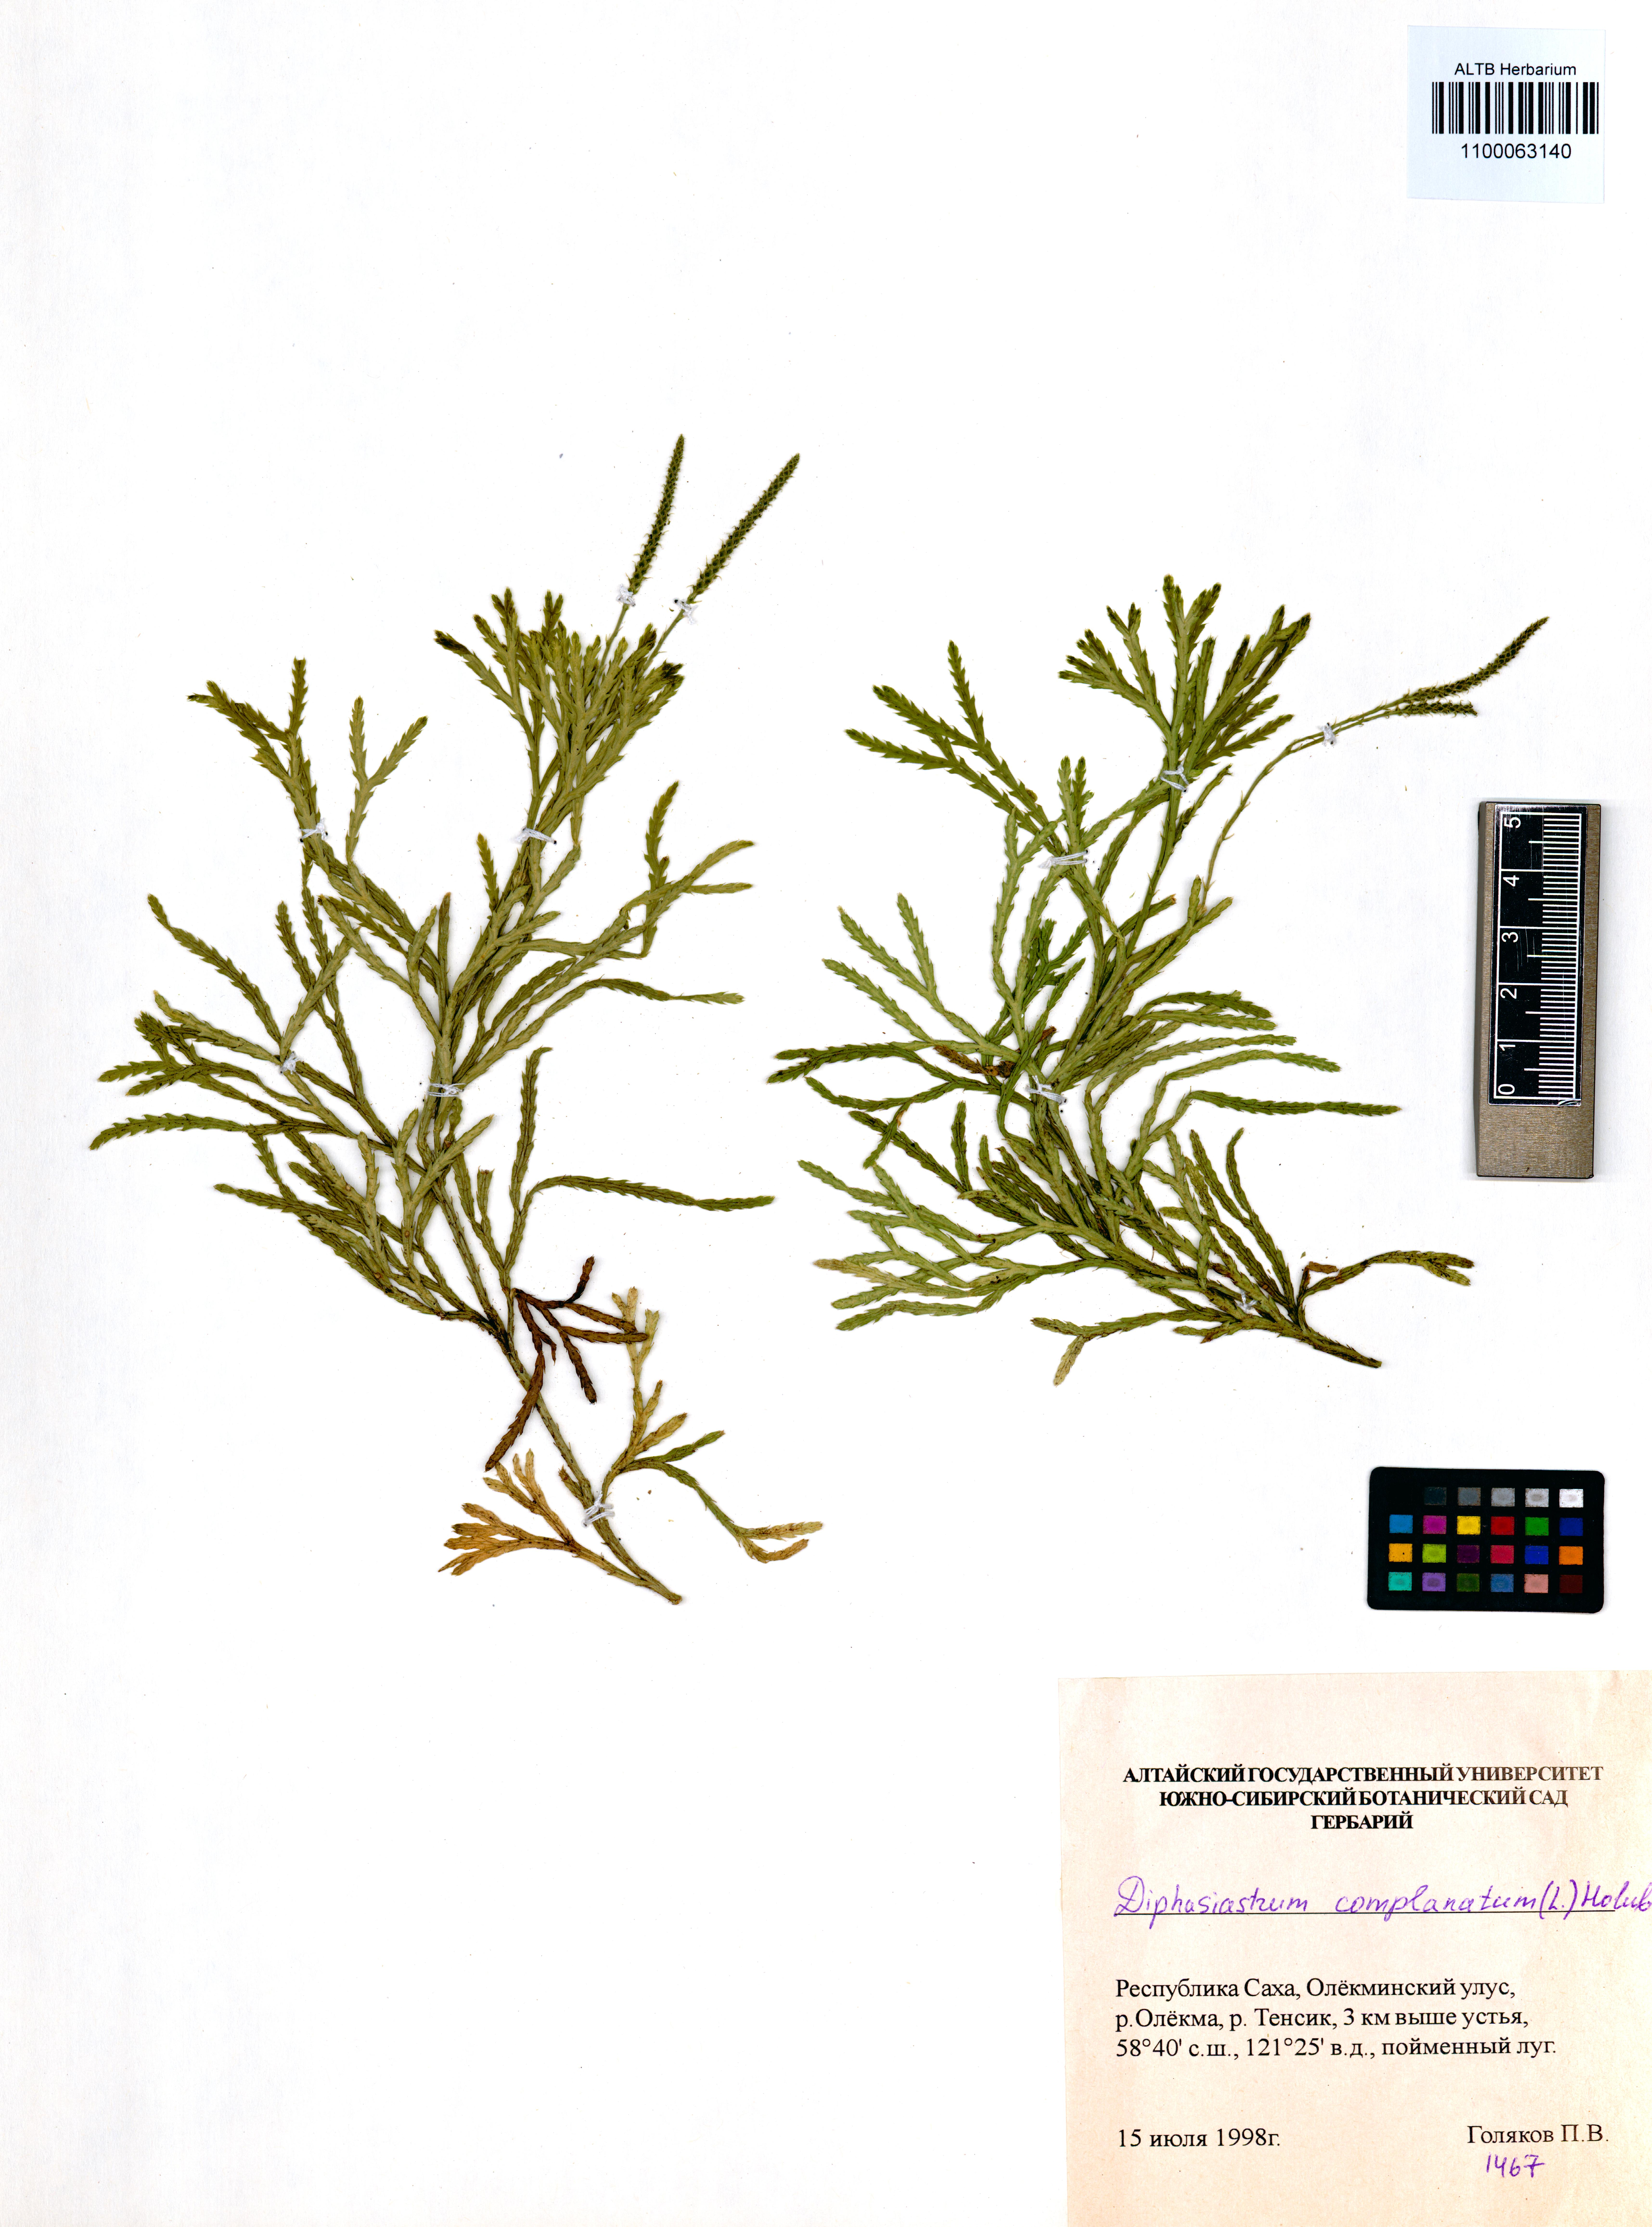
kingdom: Plantae
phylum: Tracheophyta
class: Lycopodiopsida
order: Lycopodiales
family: Lycopodiaceae
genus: Diphasiastrum
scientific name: Diphasiastrum complanatum
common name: Northern running-pine
